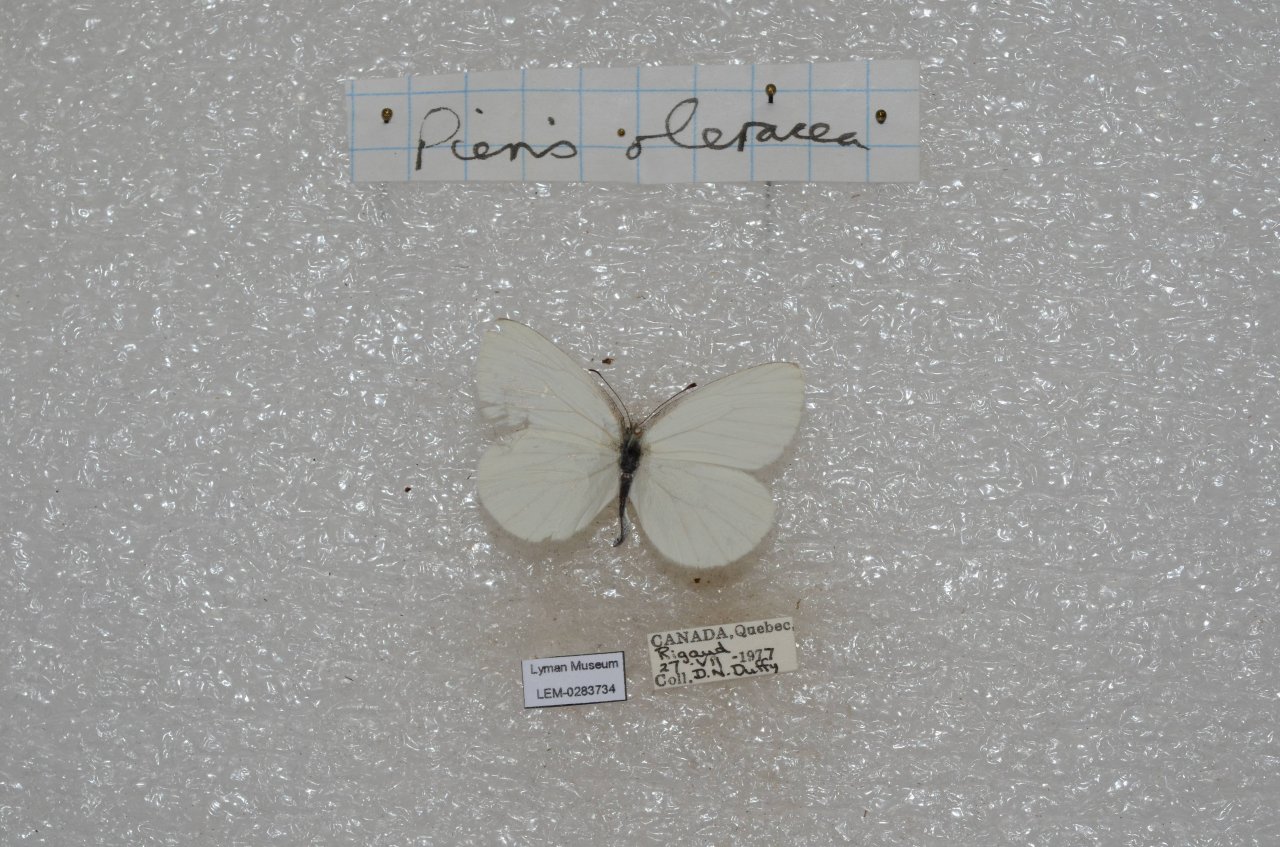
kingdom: Animalia
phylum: Arthropoda
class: Insecta
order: Lepidoptera
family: Pieridae
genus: Pieris
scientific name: Pieris oleracea
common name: Mustard White
